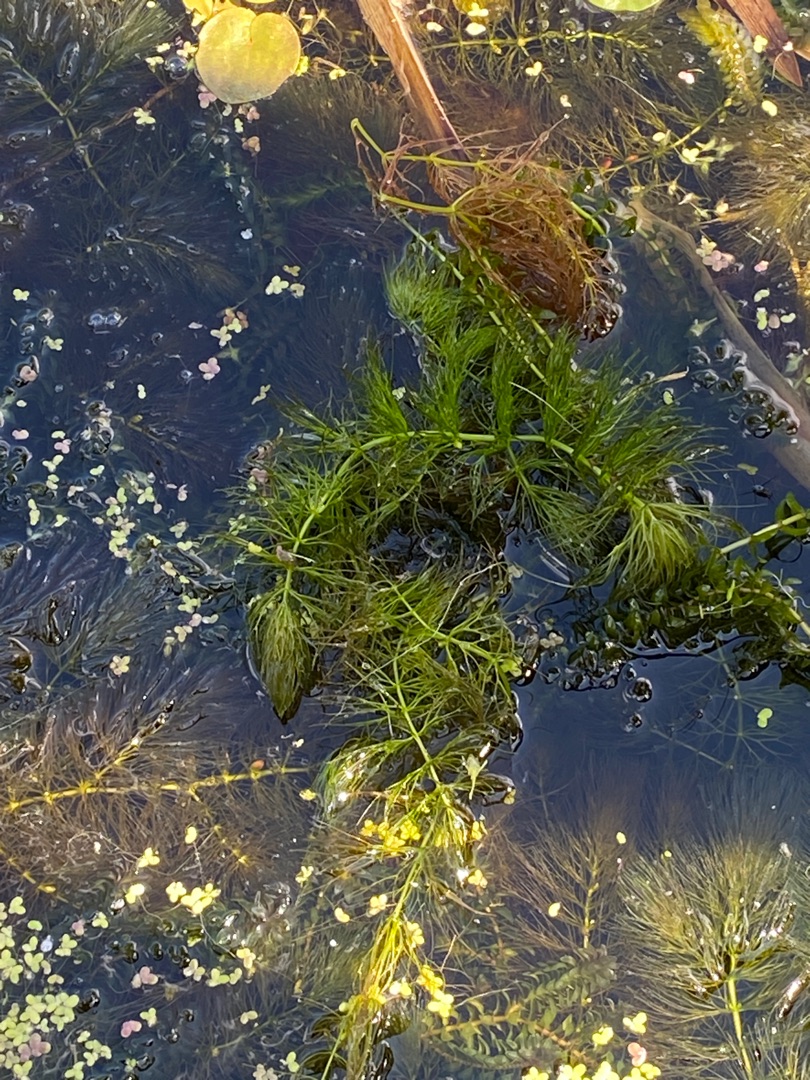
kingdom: Plantae
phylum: Tracheophyta
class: Magnoliopsida
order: Ceratophyllales
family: Ceratophyllaceae
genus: Ceratophyllum
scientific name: Ceratophyllum submersum
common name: Tornløs hornblad
